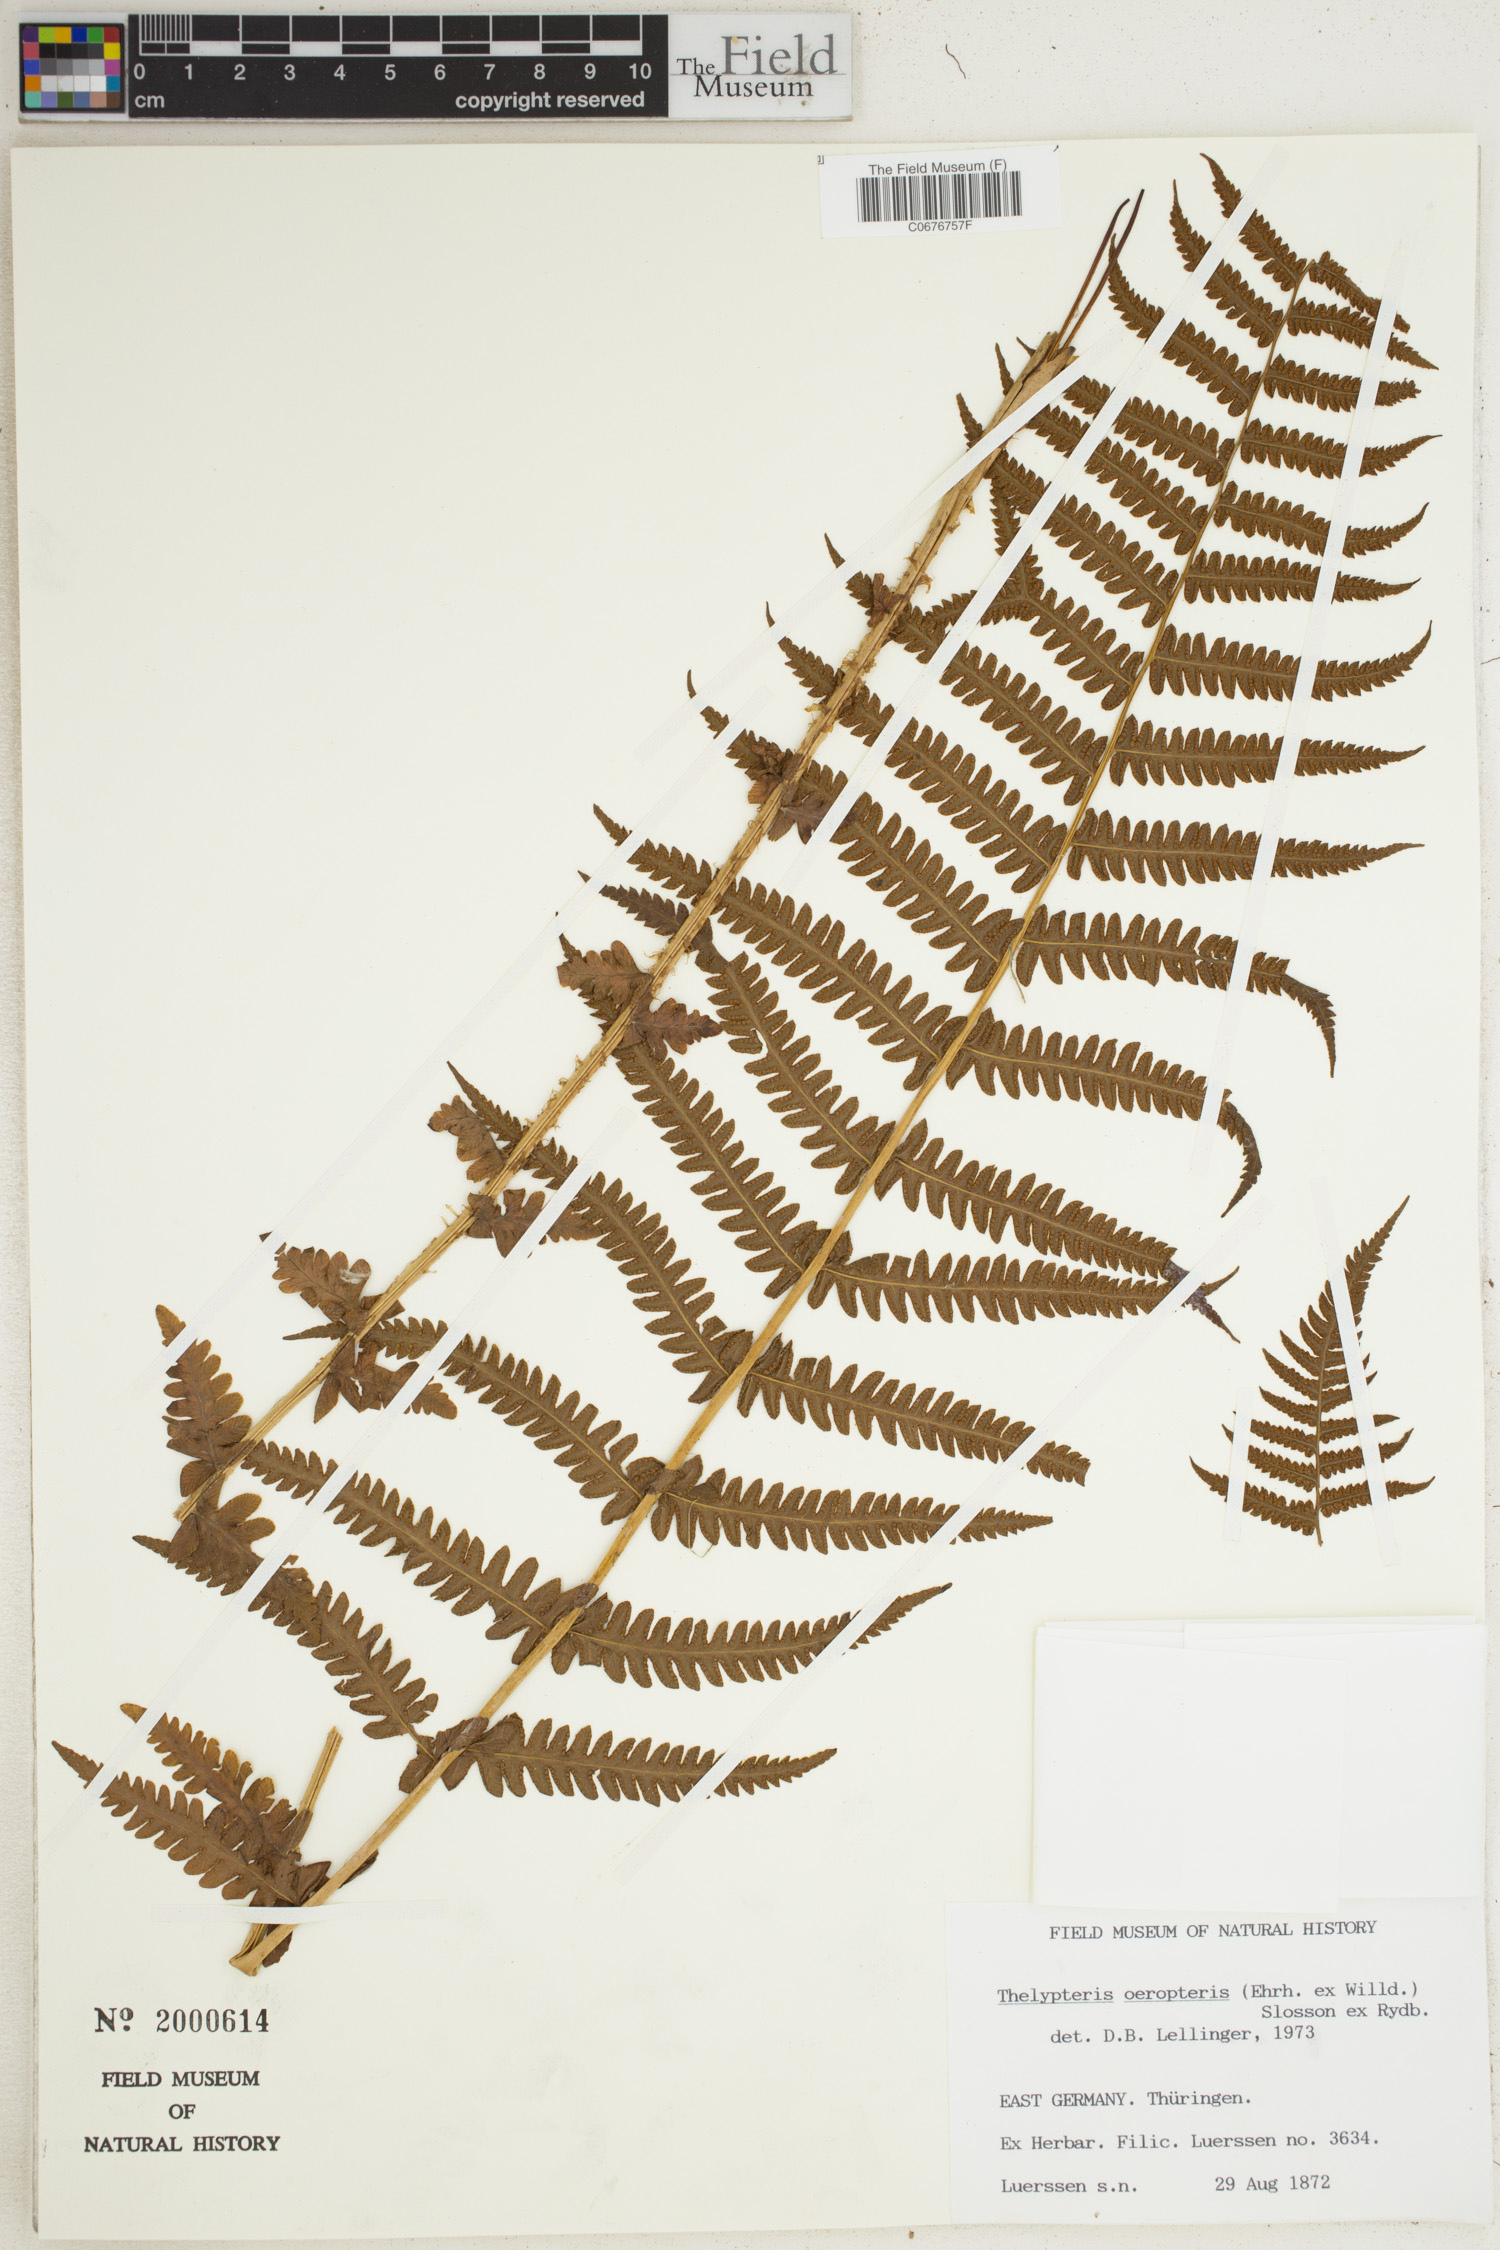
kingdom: Plantae
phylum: Tracheophyta
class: Polypodiopsida
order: Polypodiales
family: Thelypteridaceae
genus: Oreopteris
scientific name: Oreopteris limbosperma
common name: Lemon-scented fern
